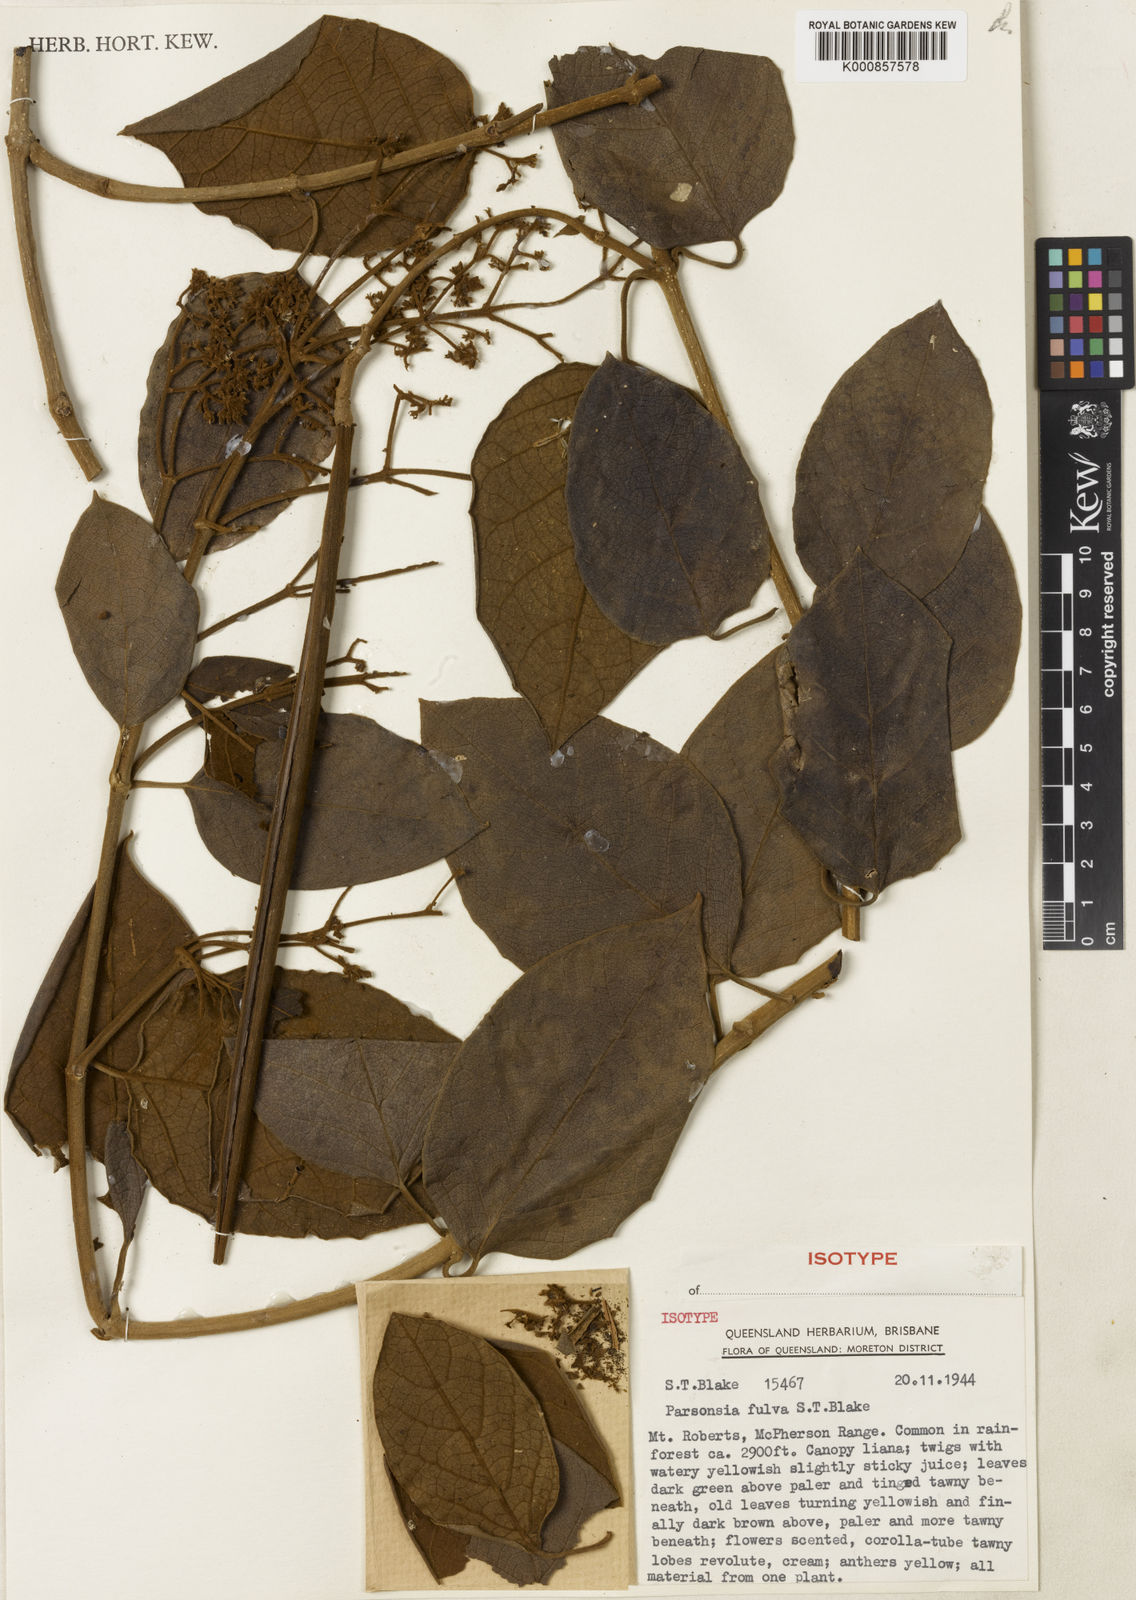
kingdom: Plantae
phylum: Tracheophyta
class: Magnoliopsida
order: Gentianales
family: Apocynaceae
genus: Parsonsia
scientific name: Parsonsia fulva
